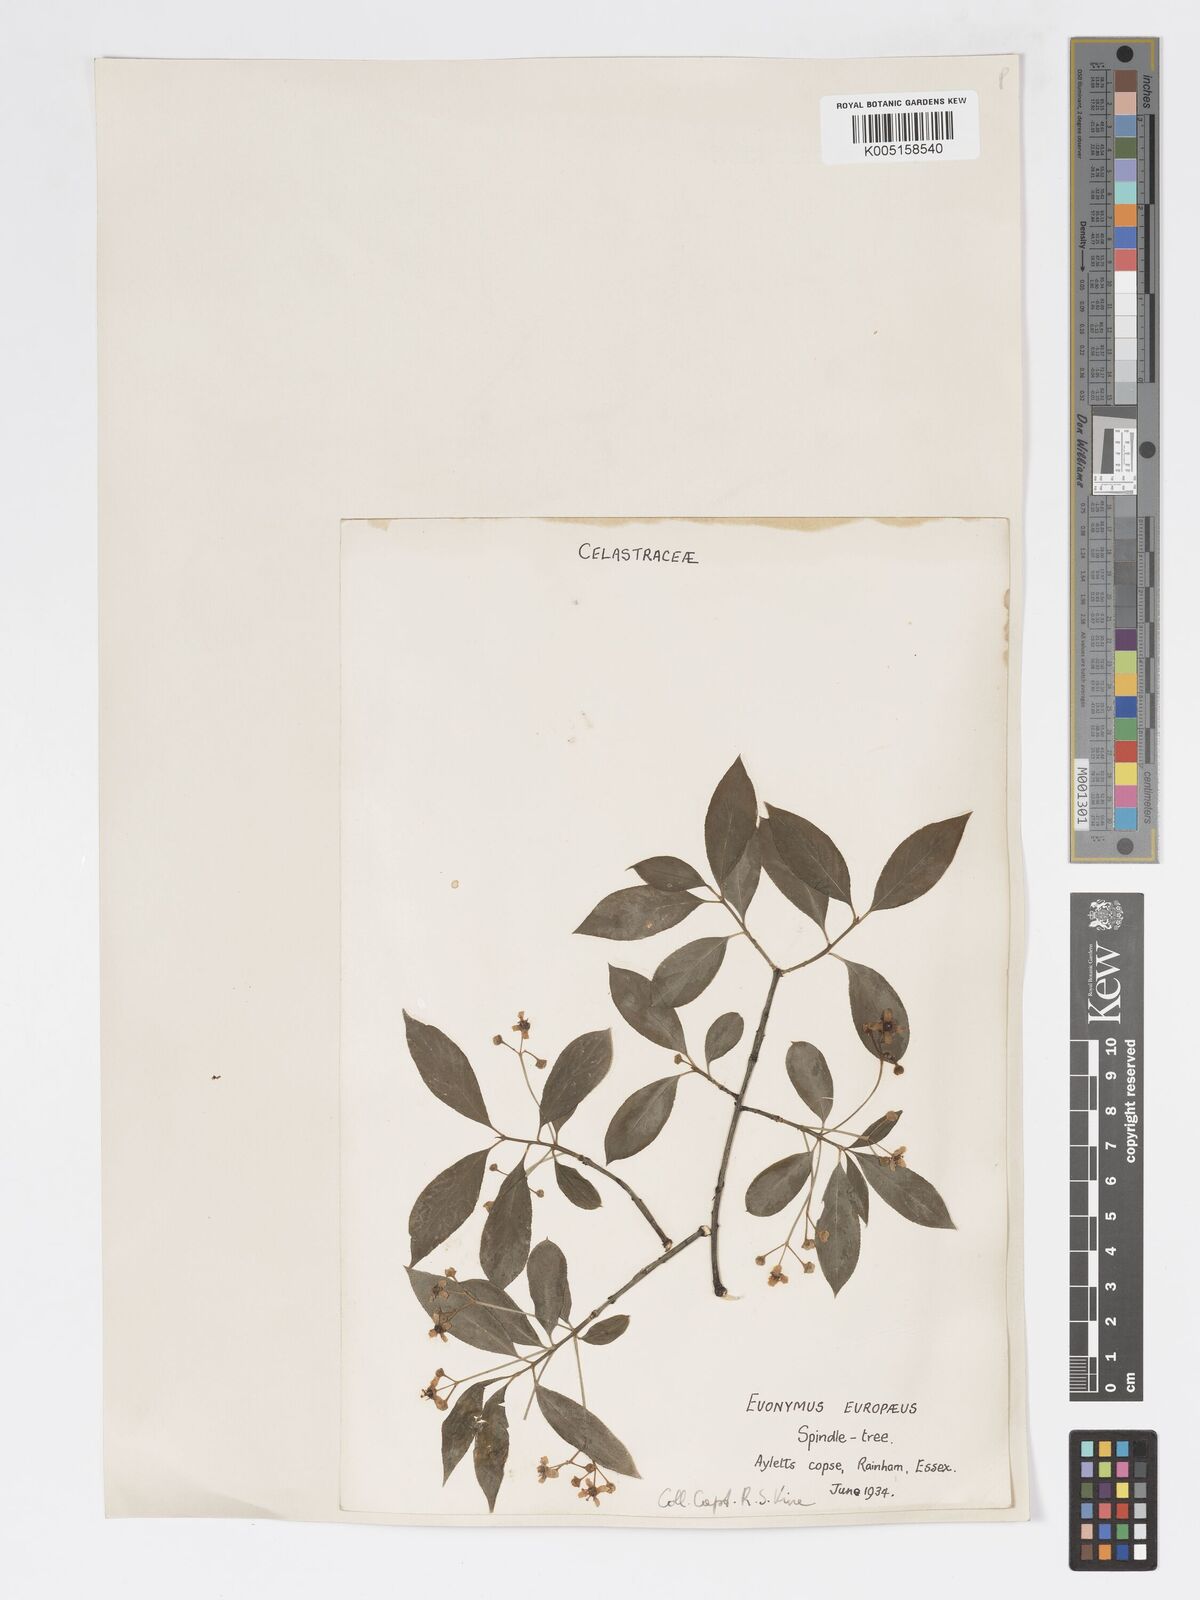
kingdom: Plantae
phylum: Tracheophyta
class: Magnoliopsida
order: Celastrales
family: Celastraceae
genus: Euonymus
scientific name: Euonymus
